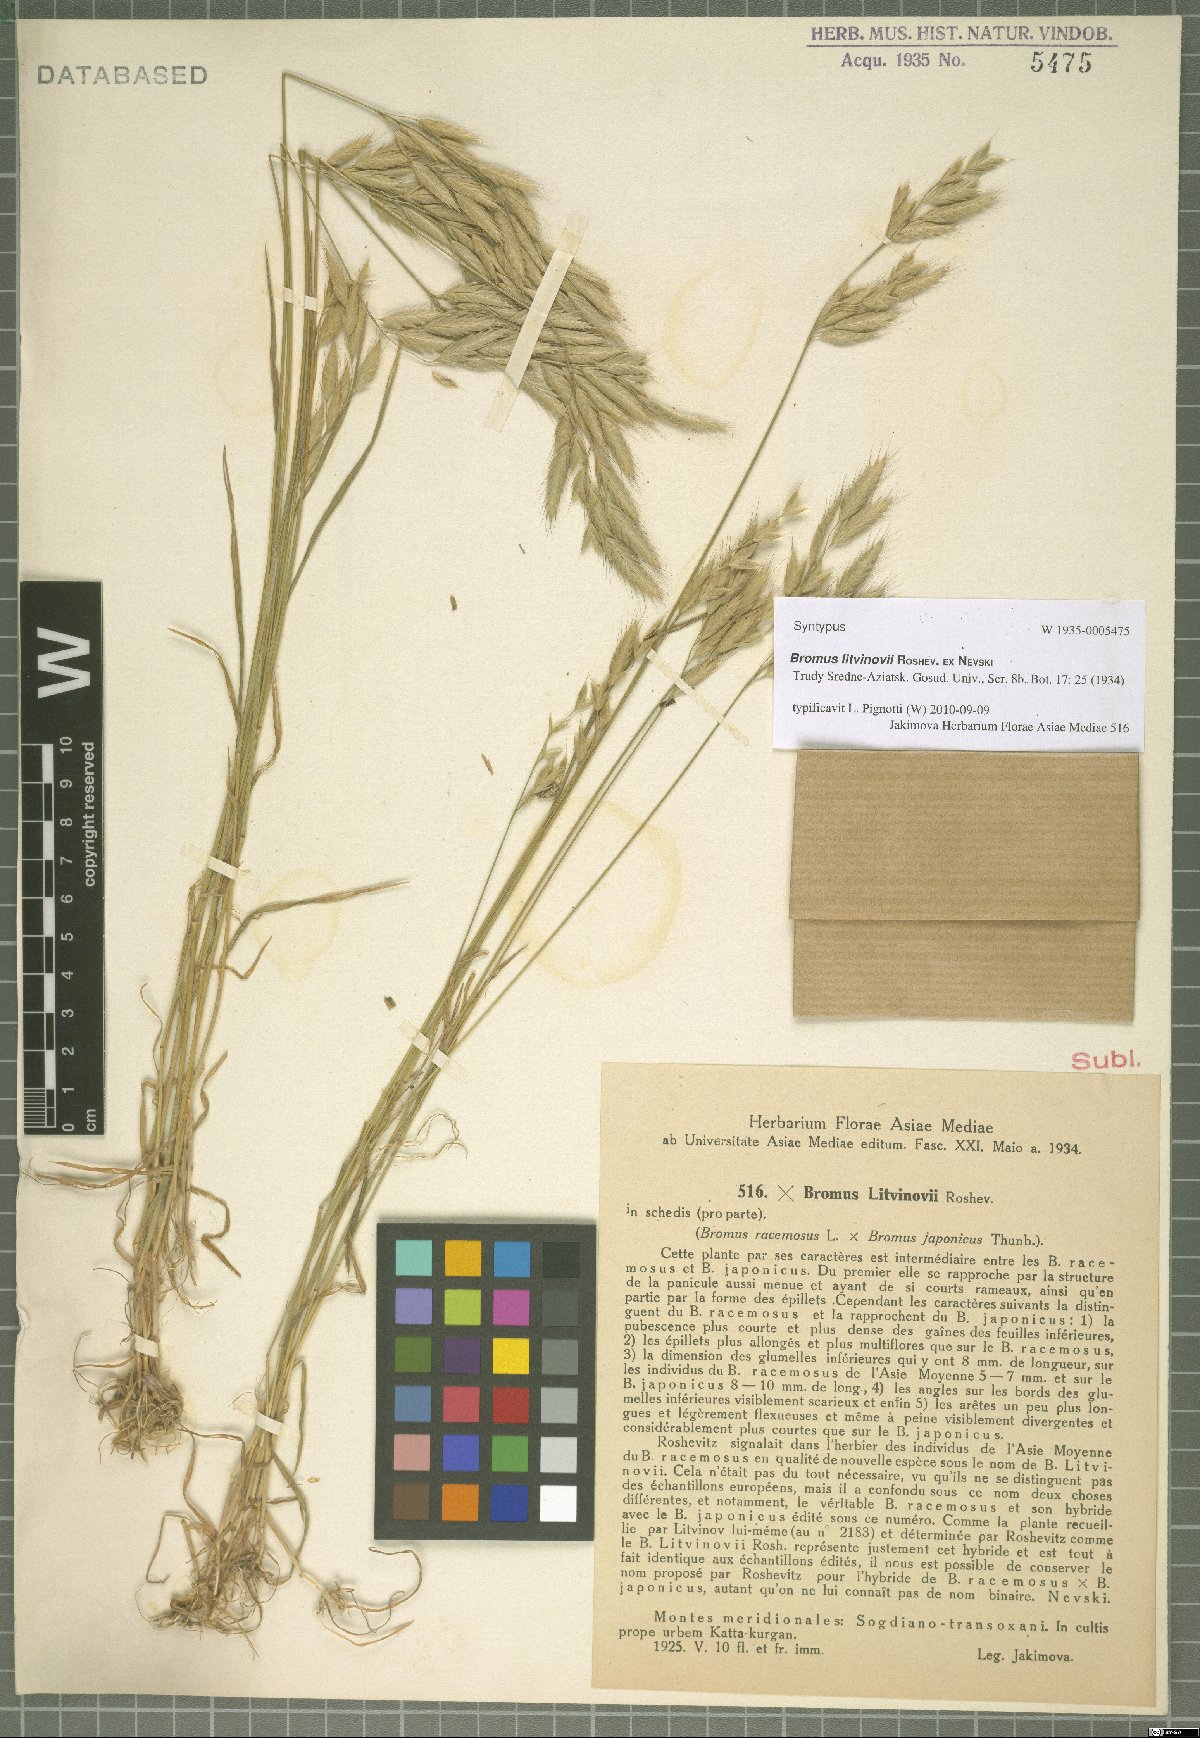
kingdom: Plantae
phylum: Tracheophyta
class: Liliopsida
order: Poales
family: Poaceae
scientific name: Poaceae
